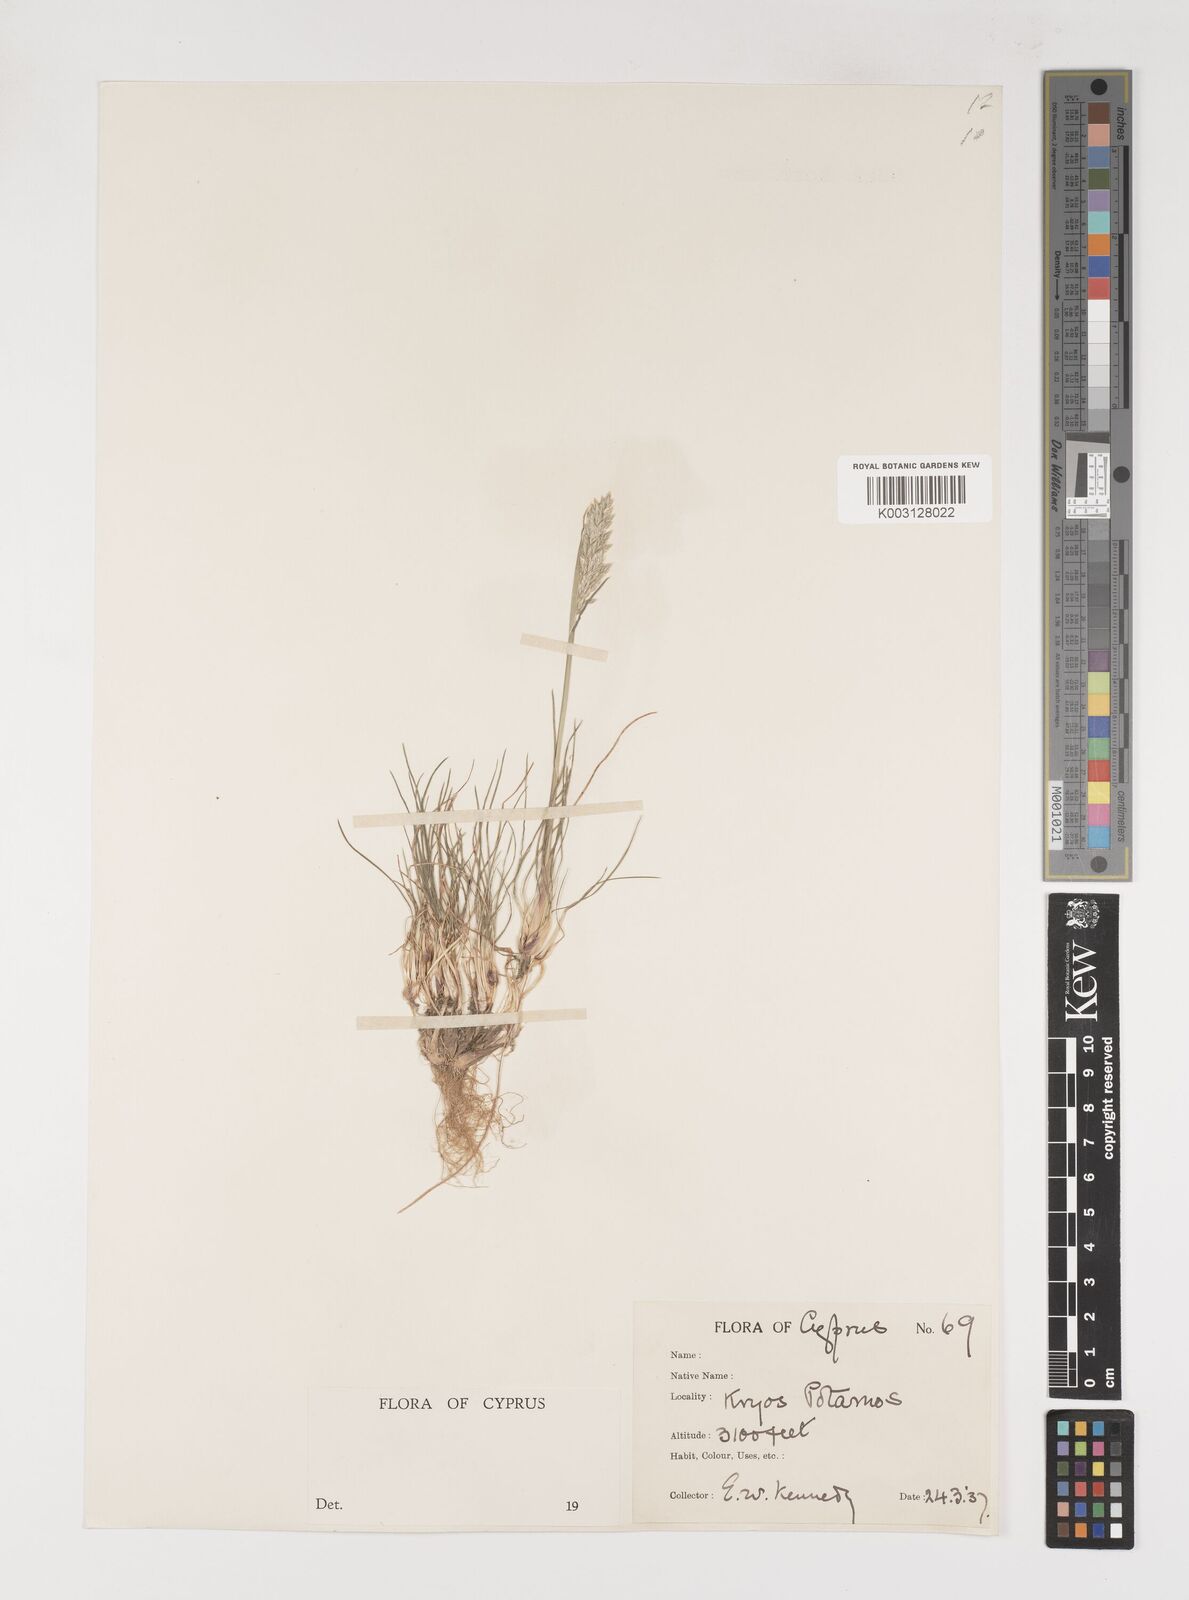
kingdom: Plantae
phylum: Tracheophyta
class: Liliopsida
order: Poales
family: Poaceae
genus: Poa
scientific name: Poa bulbosa
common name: Bulbous bluegrass
